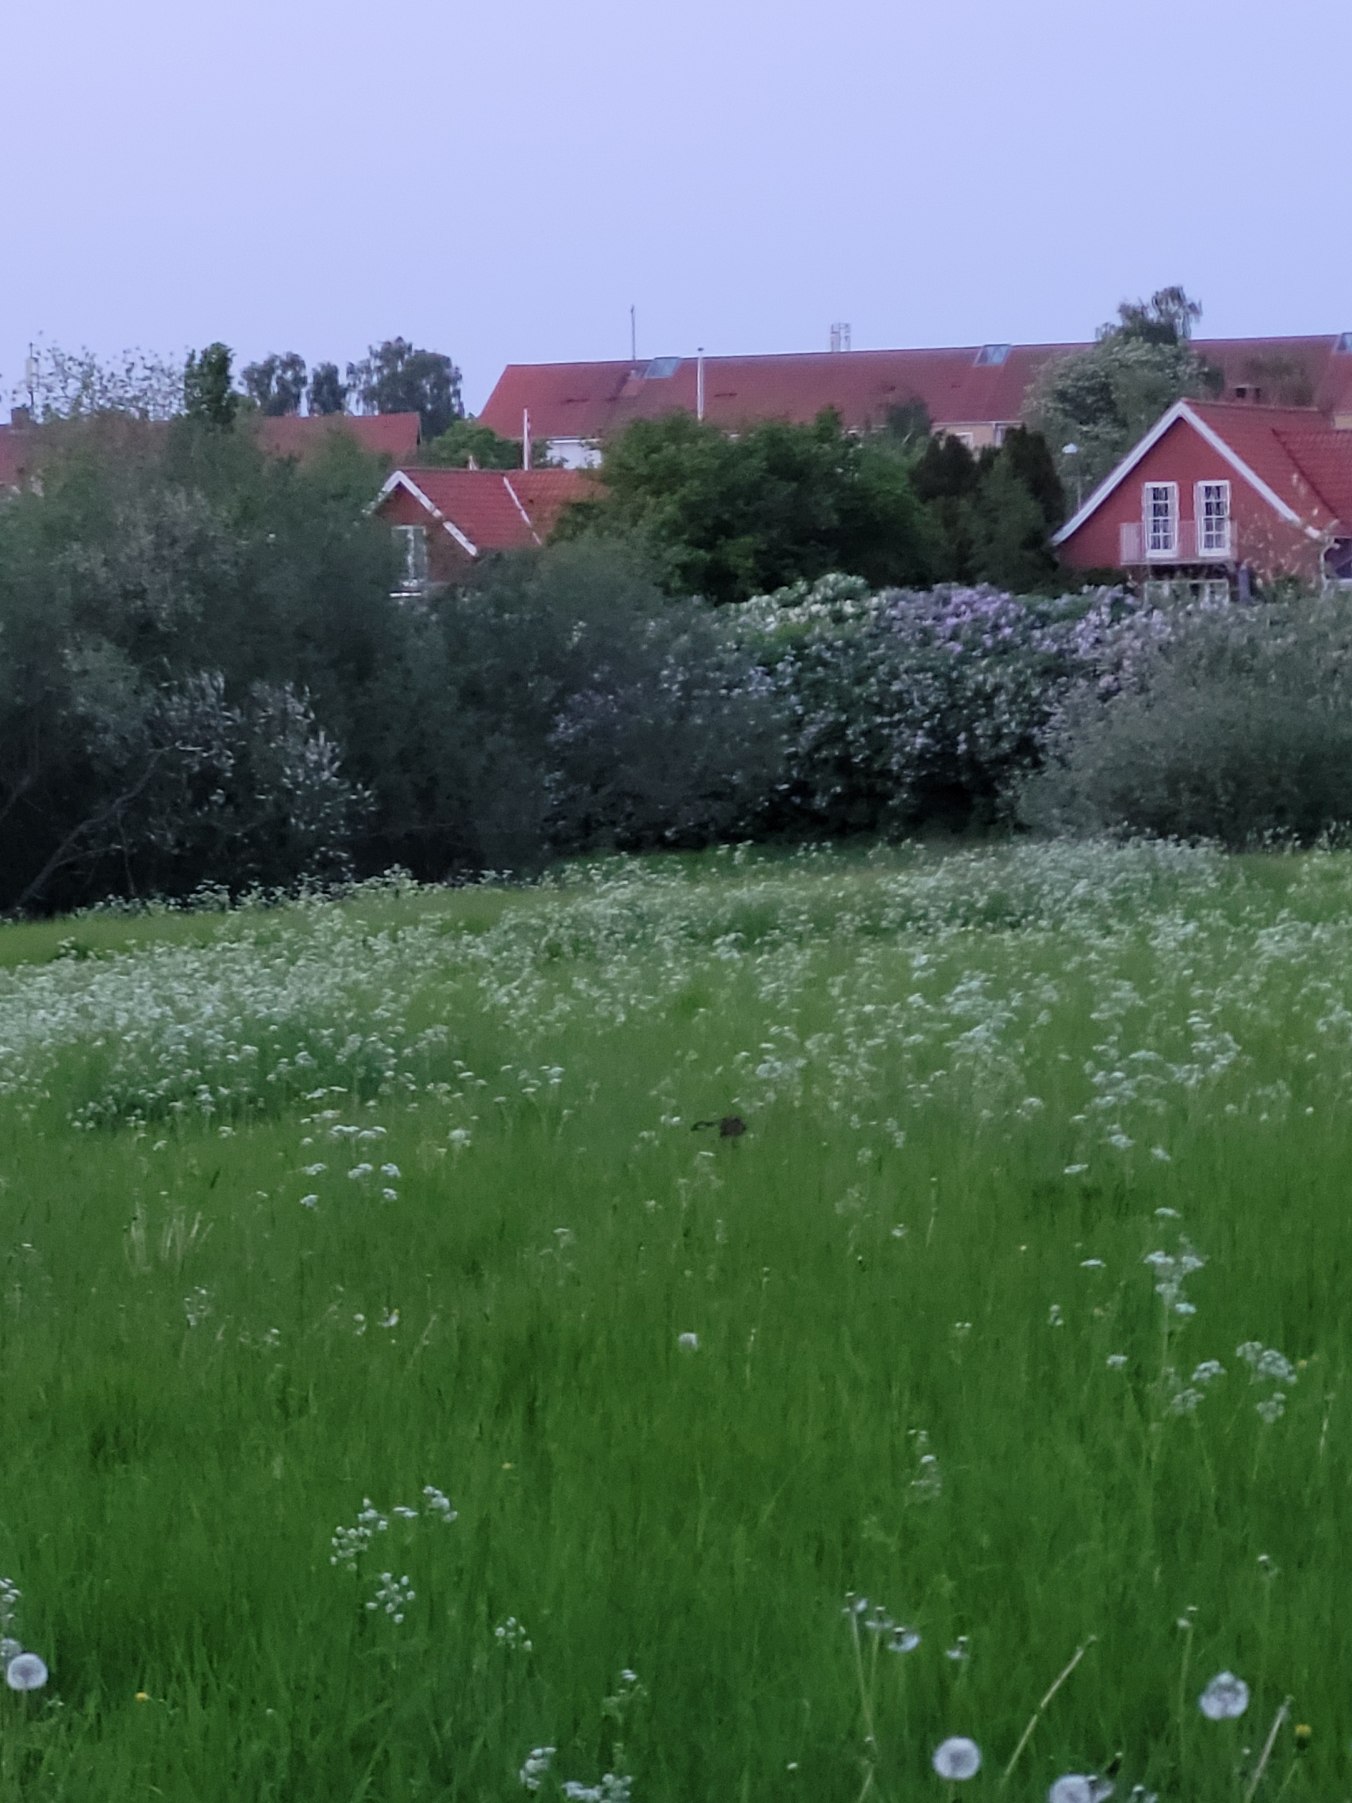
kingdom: Animalia
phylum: Chordata
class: Mammalia
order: Lagomorpha
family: Leporidae
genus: Lepus
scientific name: Lepus europaeus
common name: Hare
